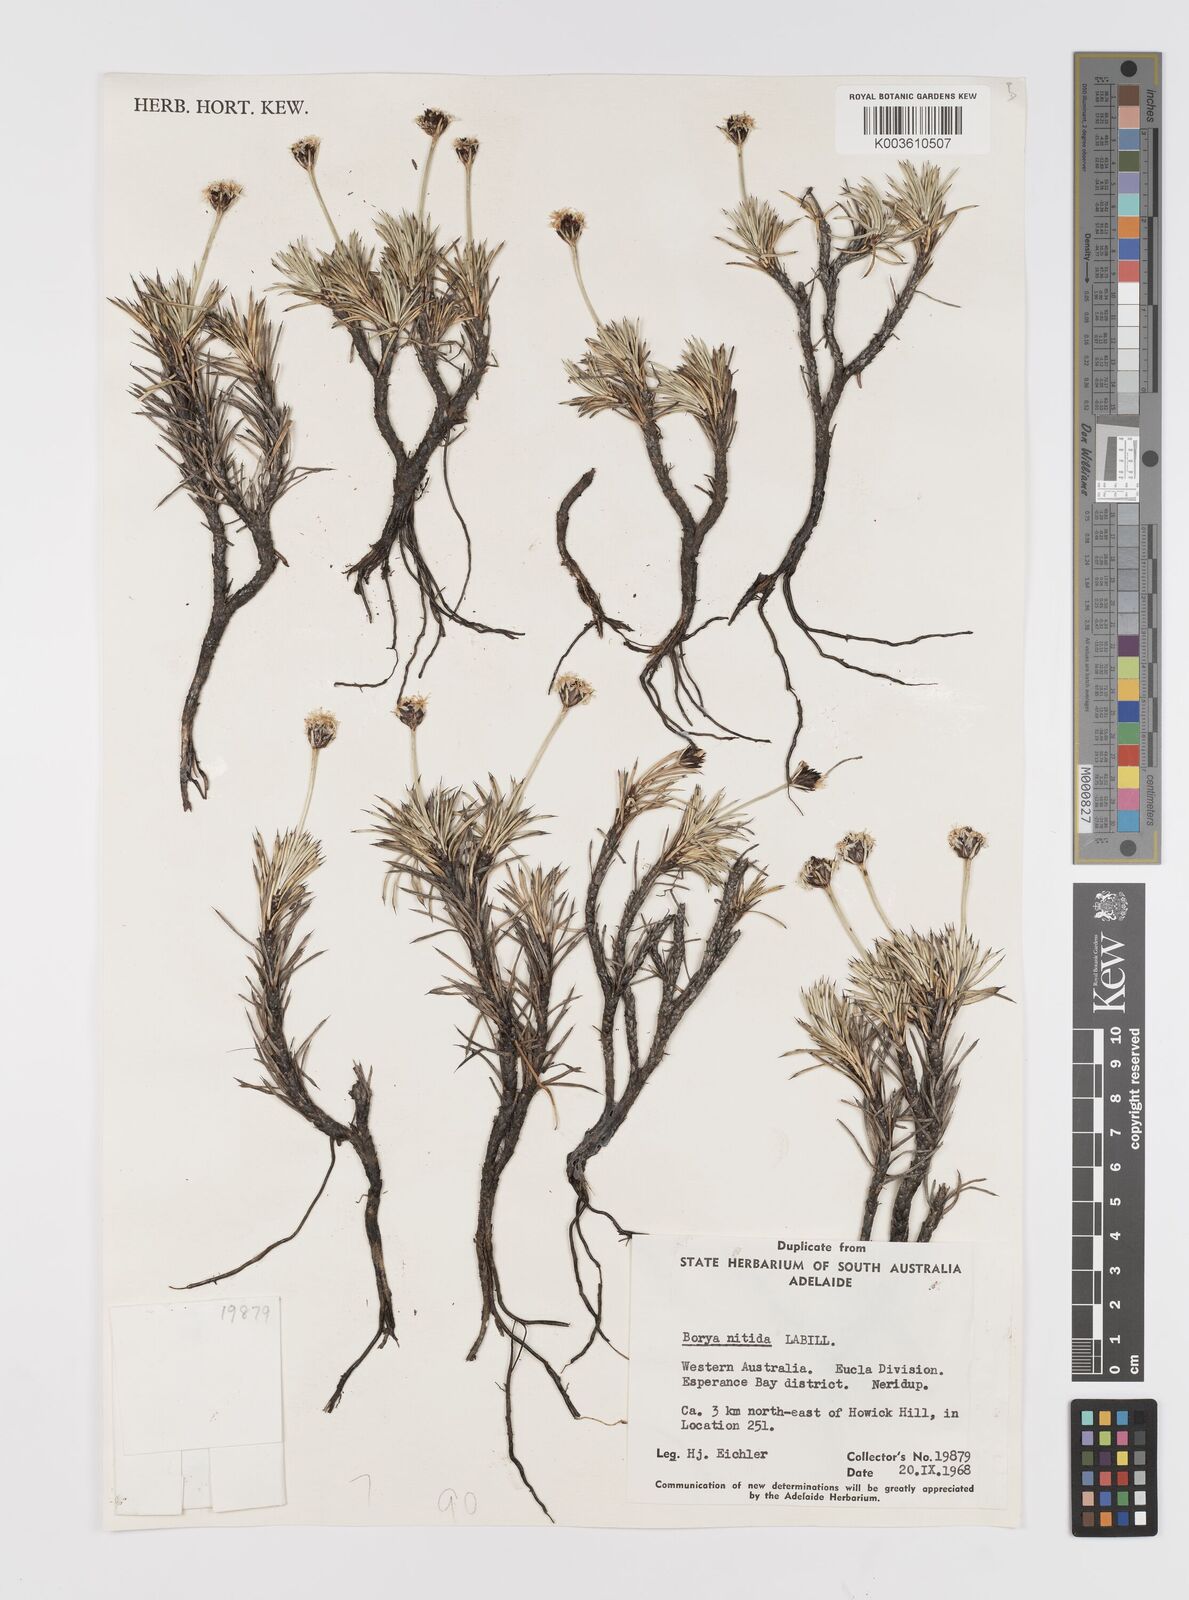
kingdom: Plantae
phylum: Tracheophyta
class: Liliopsida
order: Asparagales
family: Boryaceae
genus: Borya
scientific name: Borya nitida
